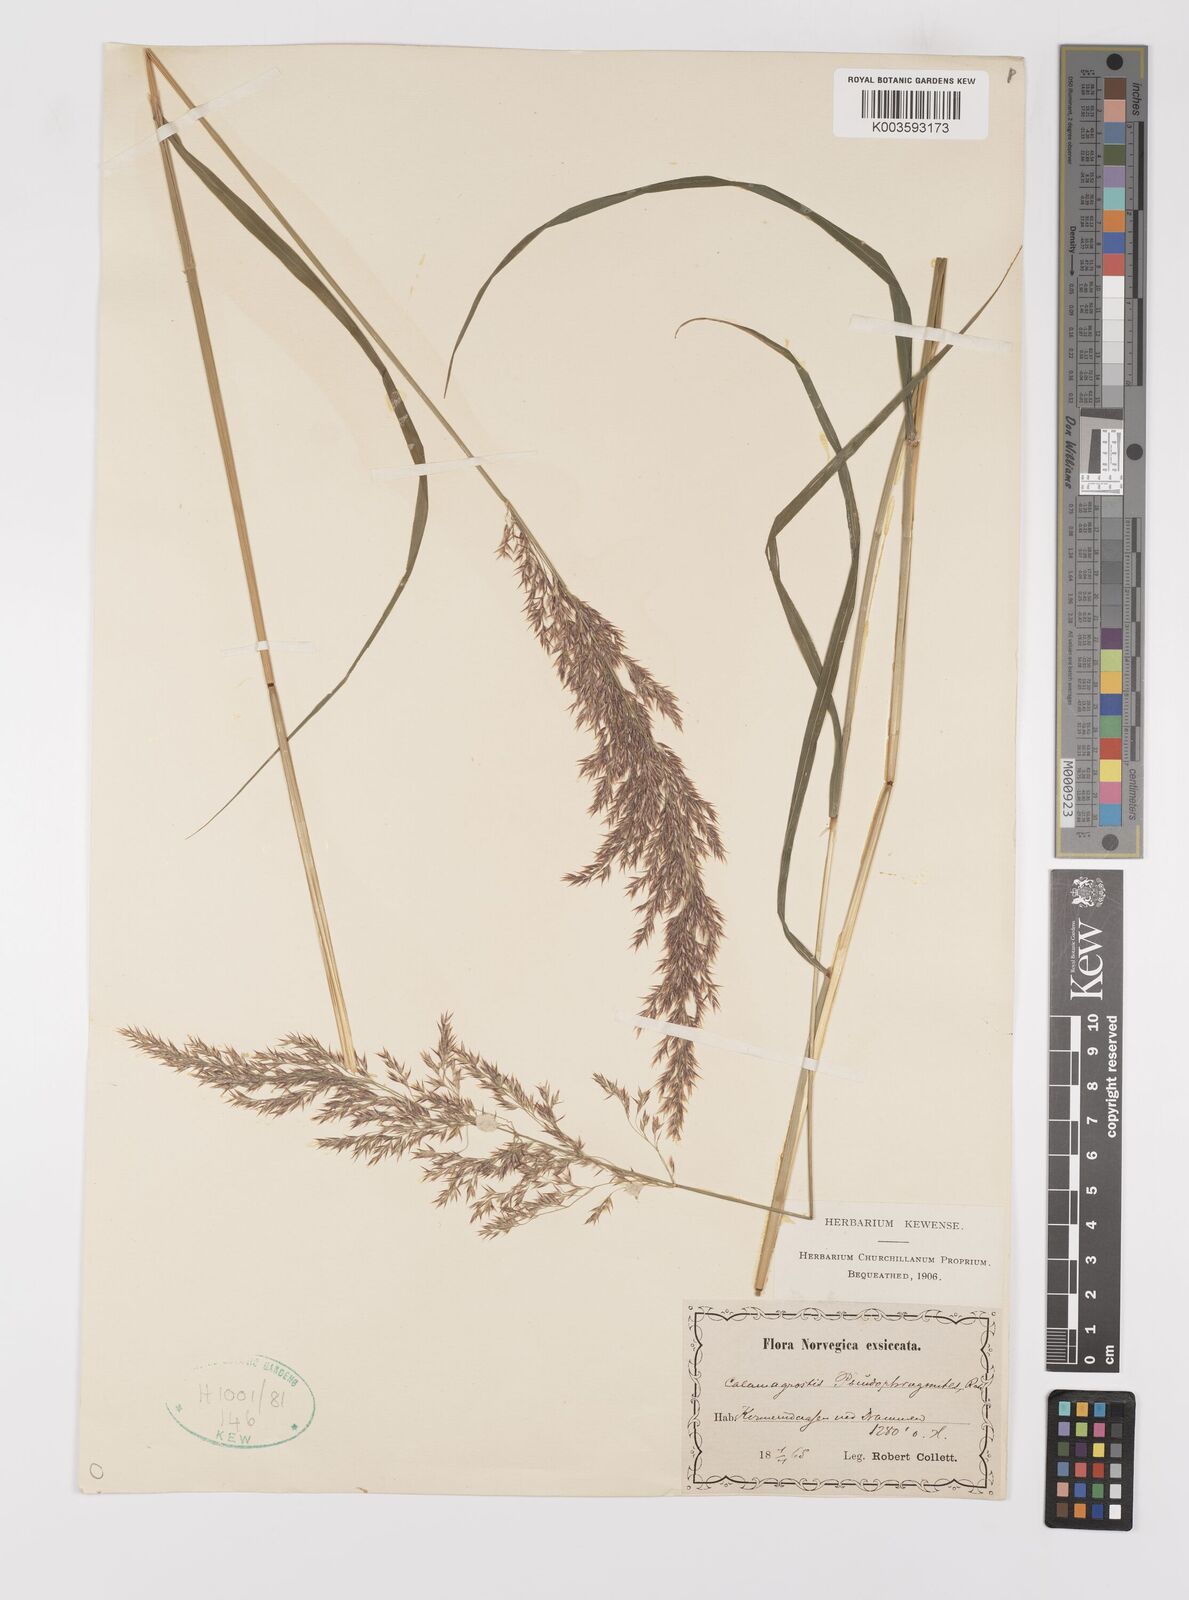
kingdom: Plantae
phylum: Tracheophyta
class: Liliopsida
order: Poales
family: Poaceae
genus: Calamagrostis
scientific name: Calamagrostis
